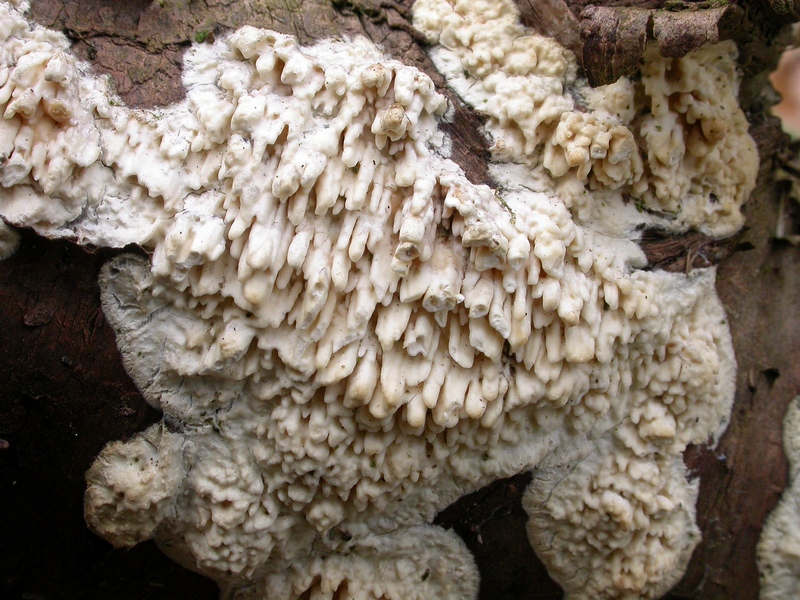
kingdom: Fungi
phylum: Basidiomycota
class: Agaricomycetes
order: Hymenochaetales
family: Schizoporaceae
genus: Xylodon
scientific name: Xylodon radula
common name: grovtandet kalkskind
